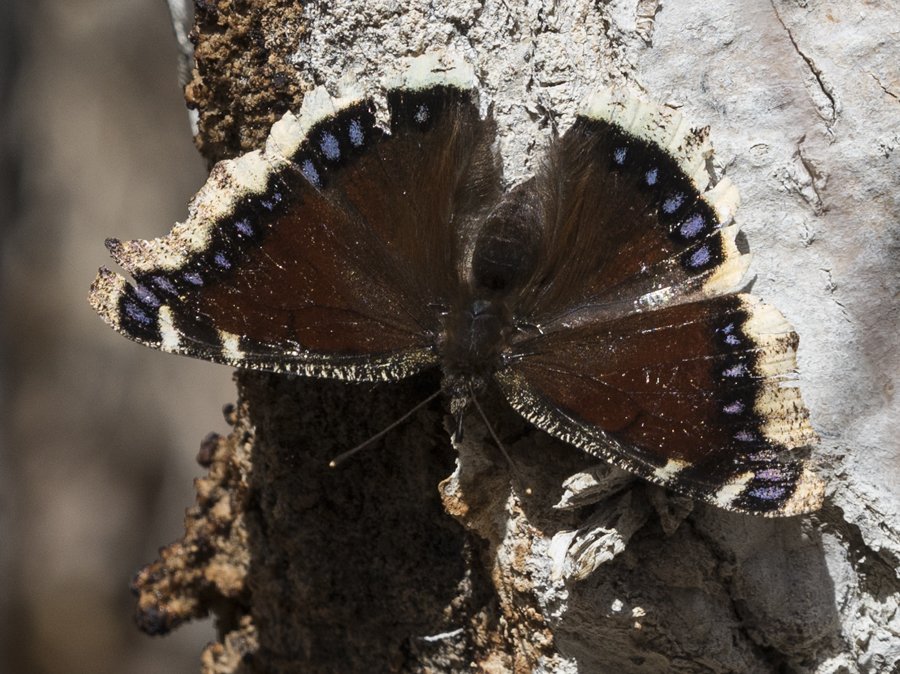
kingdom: Animalia
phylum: Arthropoda
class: Insecta
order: Lepidoptera
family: Nymphalidae
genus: Nymphalis
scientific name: Nymphalis antiopa
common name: Mourning Cloak
